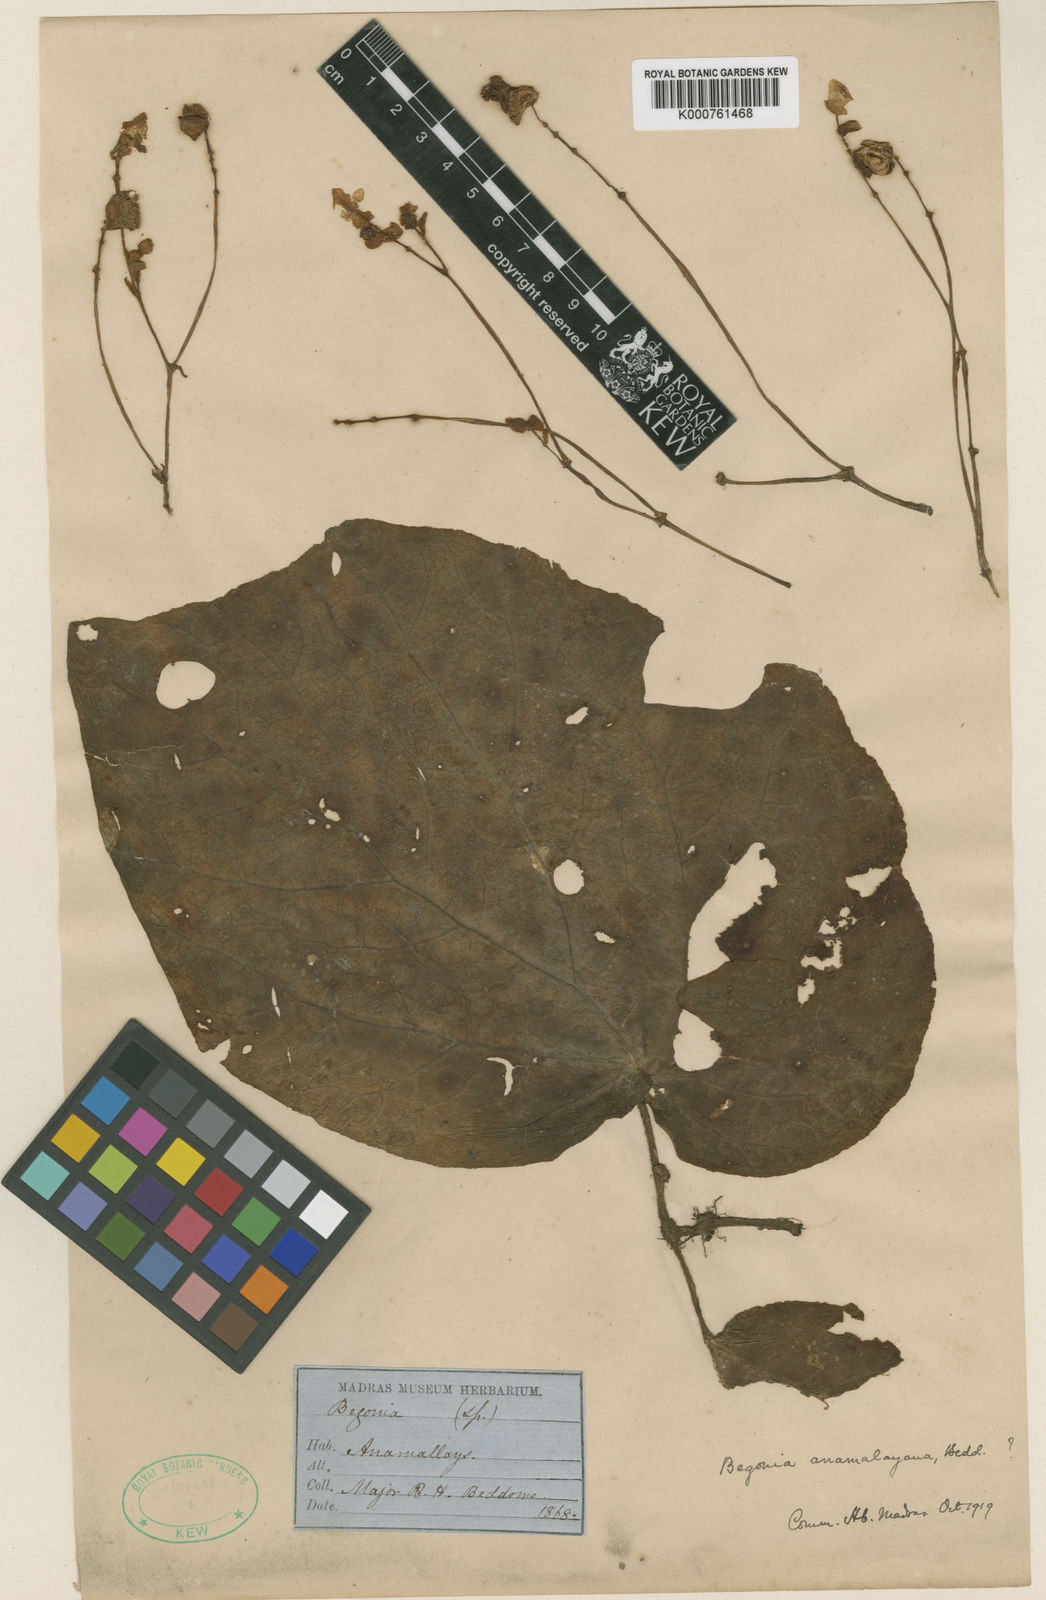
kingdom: Plantae
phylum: Tracheophyta
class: Magnoliopsida
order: Cucurbitales
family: Begoniaceae
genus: Begonia
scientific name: Begonia anaimalaiensis
